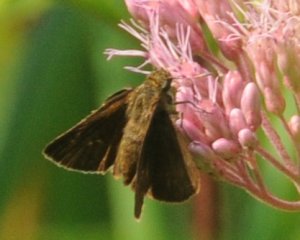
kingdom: Animalia
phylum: Arthropoda
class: Insecta
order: Lepidoptera
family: Hesperiidae
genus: Euphyes
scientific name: Euphyes vestris
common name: Dun Skipper
